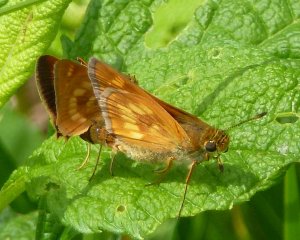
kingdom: Animalia
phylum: Arthropoda
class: Insecta
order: Lepidoptera
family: Hesperiidae
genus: Polites
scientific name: Polites
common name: Long Dash Skipper
